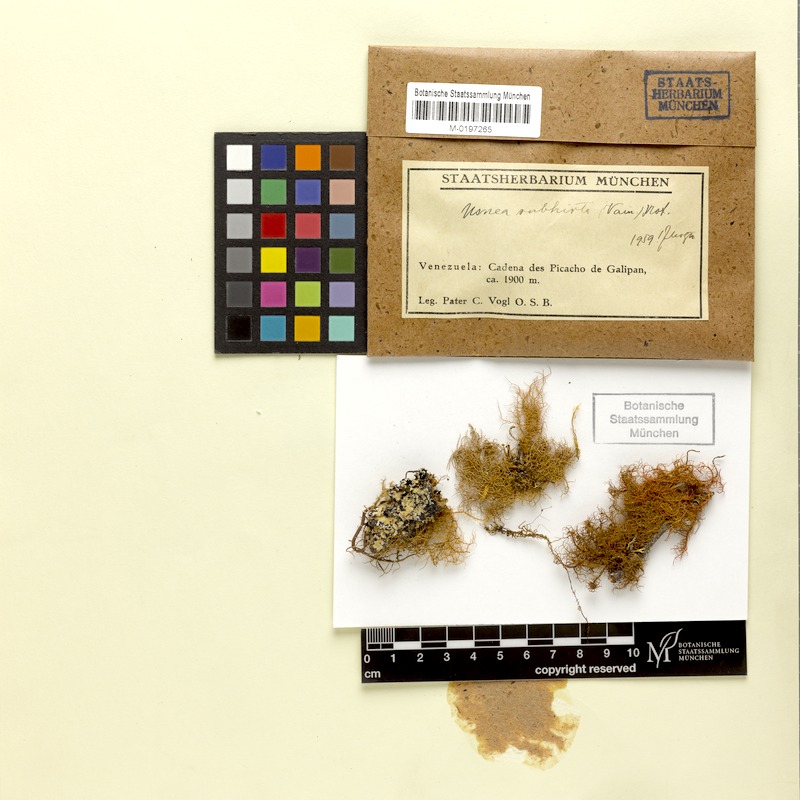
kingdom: Fungi
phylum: Ascomycota
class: Lecanoromycetes
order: Lecanorales
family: Parmeliaceae
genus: Usnea
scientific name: Usnea subhirta
